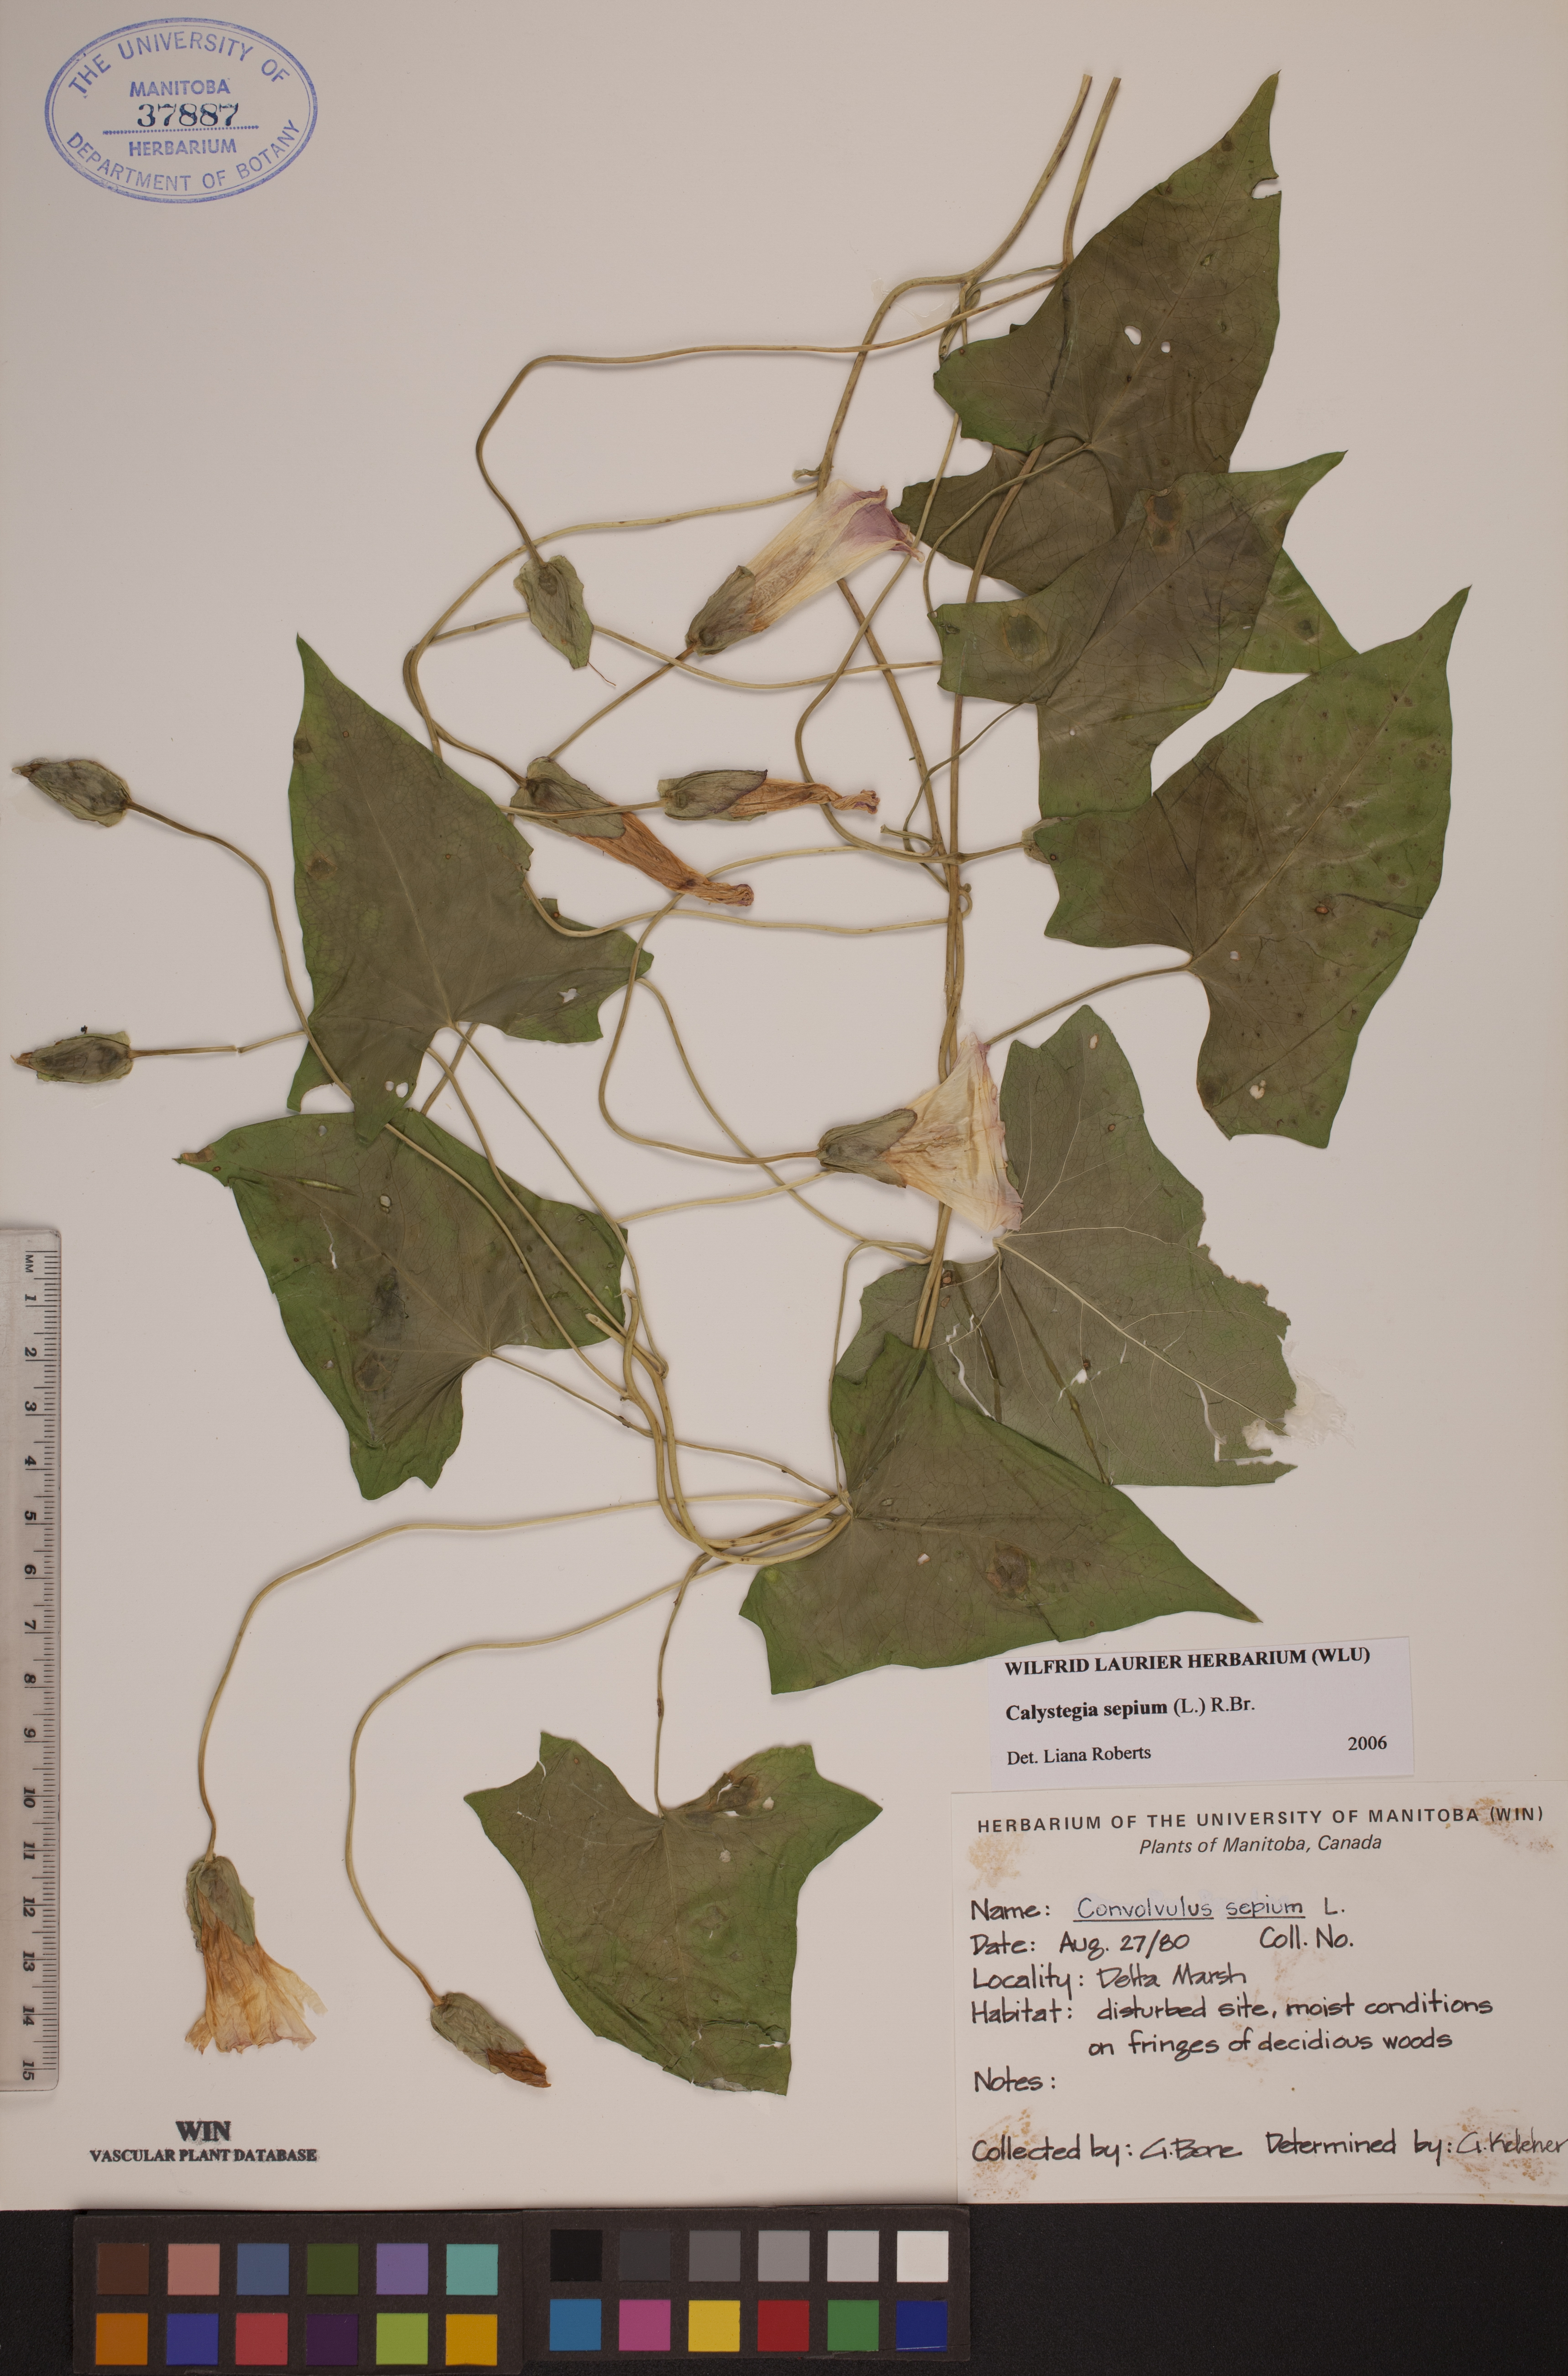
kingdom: Plantae
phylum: Tracheophyta
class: Magnoliopsida
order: Solanales
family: Convolvulaceae
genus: Calystegia
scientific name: Calystegia sepium
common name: Hedge bindweed
